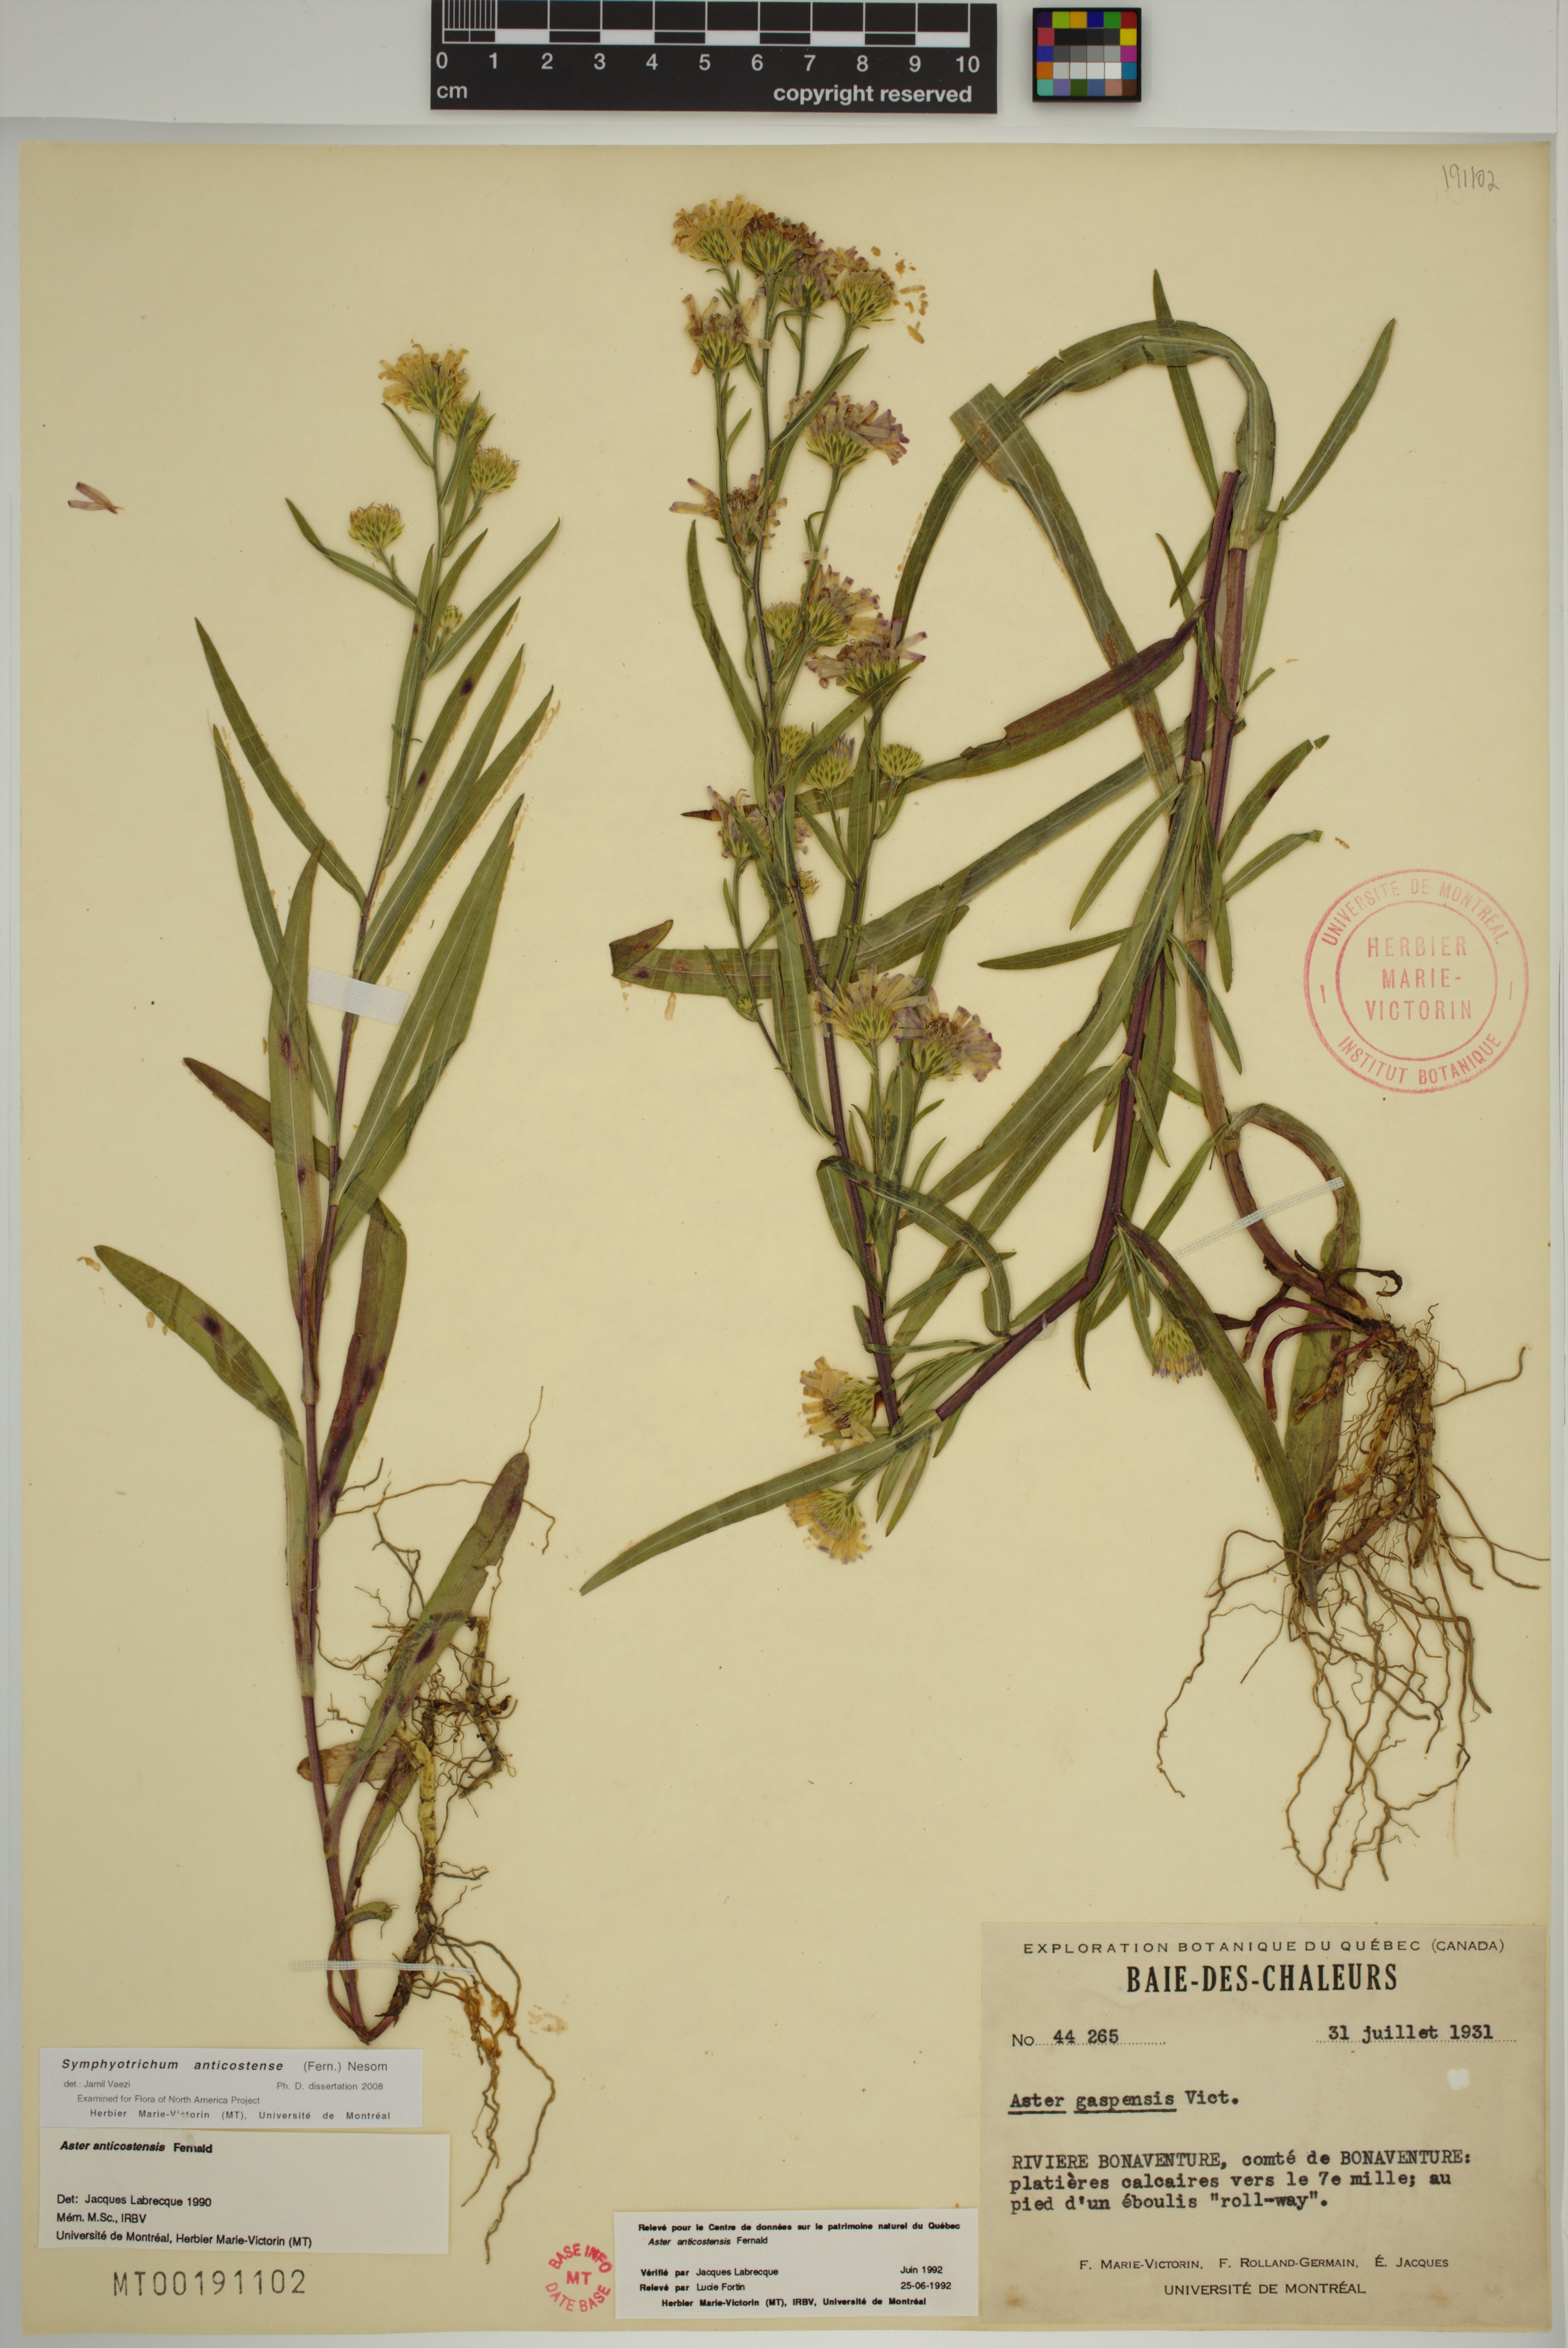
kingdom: Plantae
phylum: Tracheophyta
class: Magnoliopsida
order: Asterales
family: Asteraceae
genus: Symphyotrichum
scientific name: Symphyotrichum anticostense
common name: Anticosti island aster
